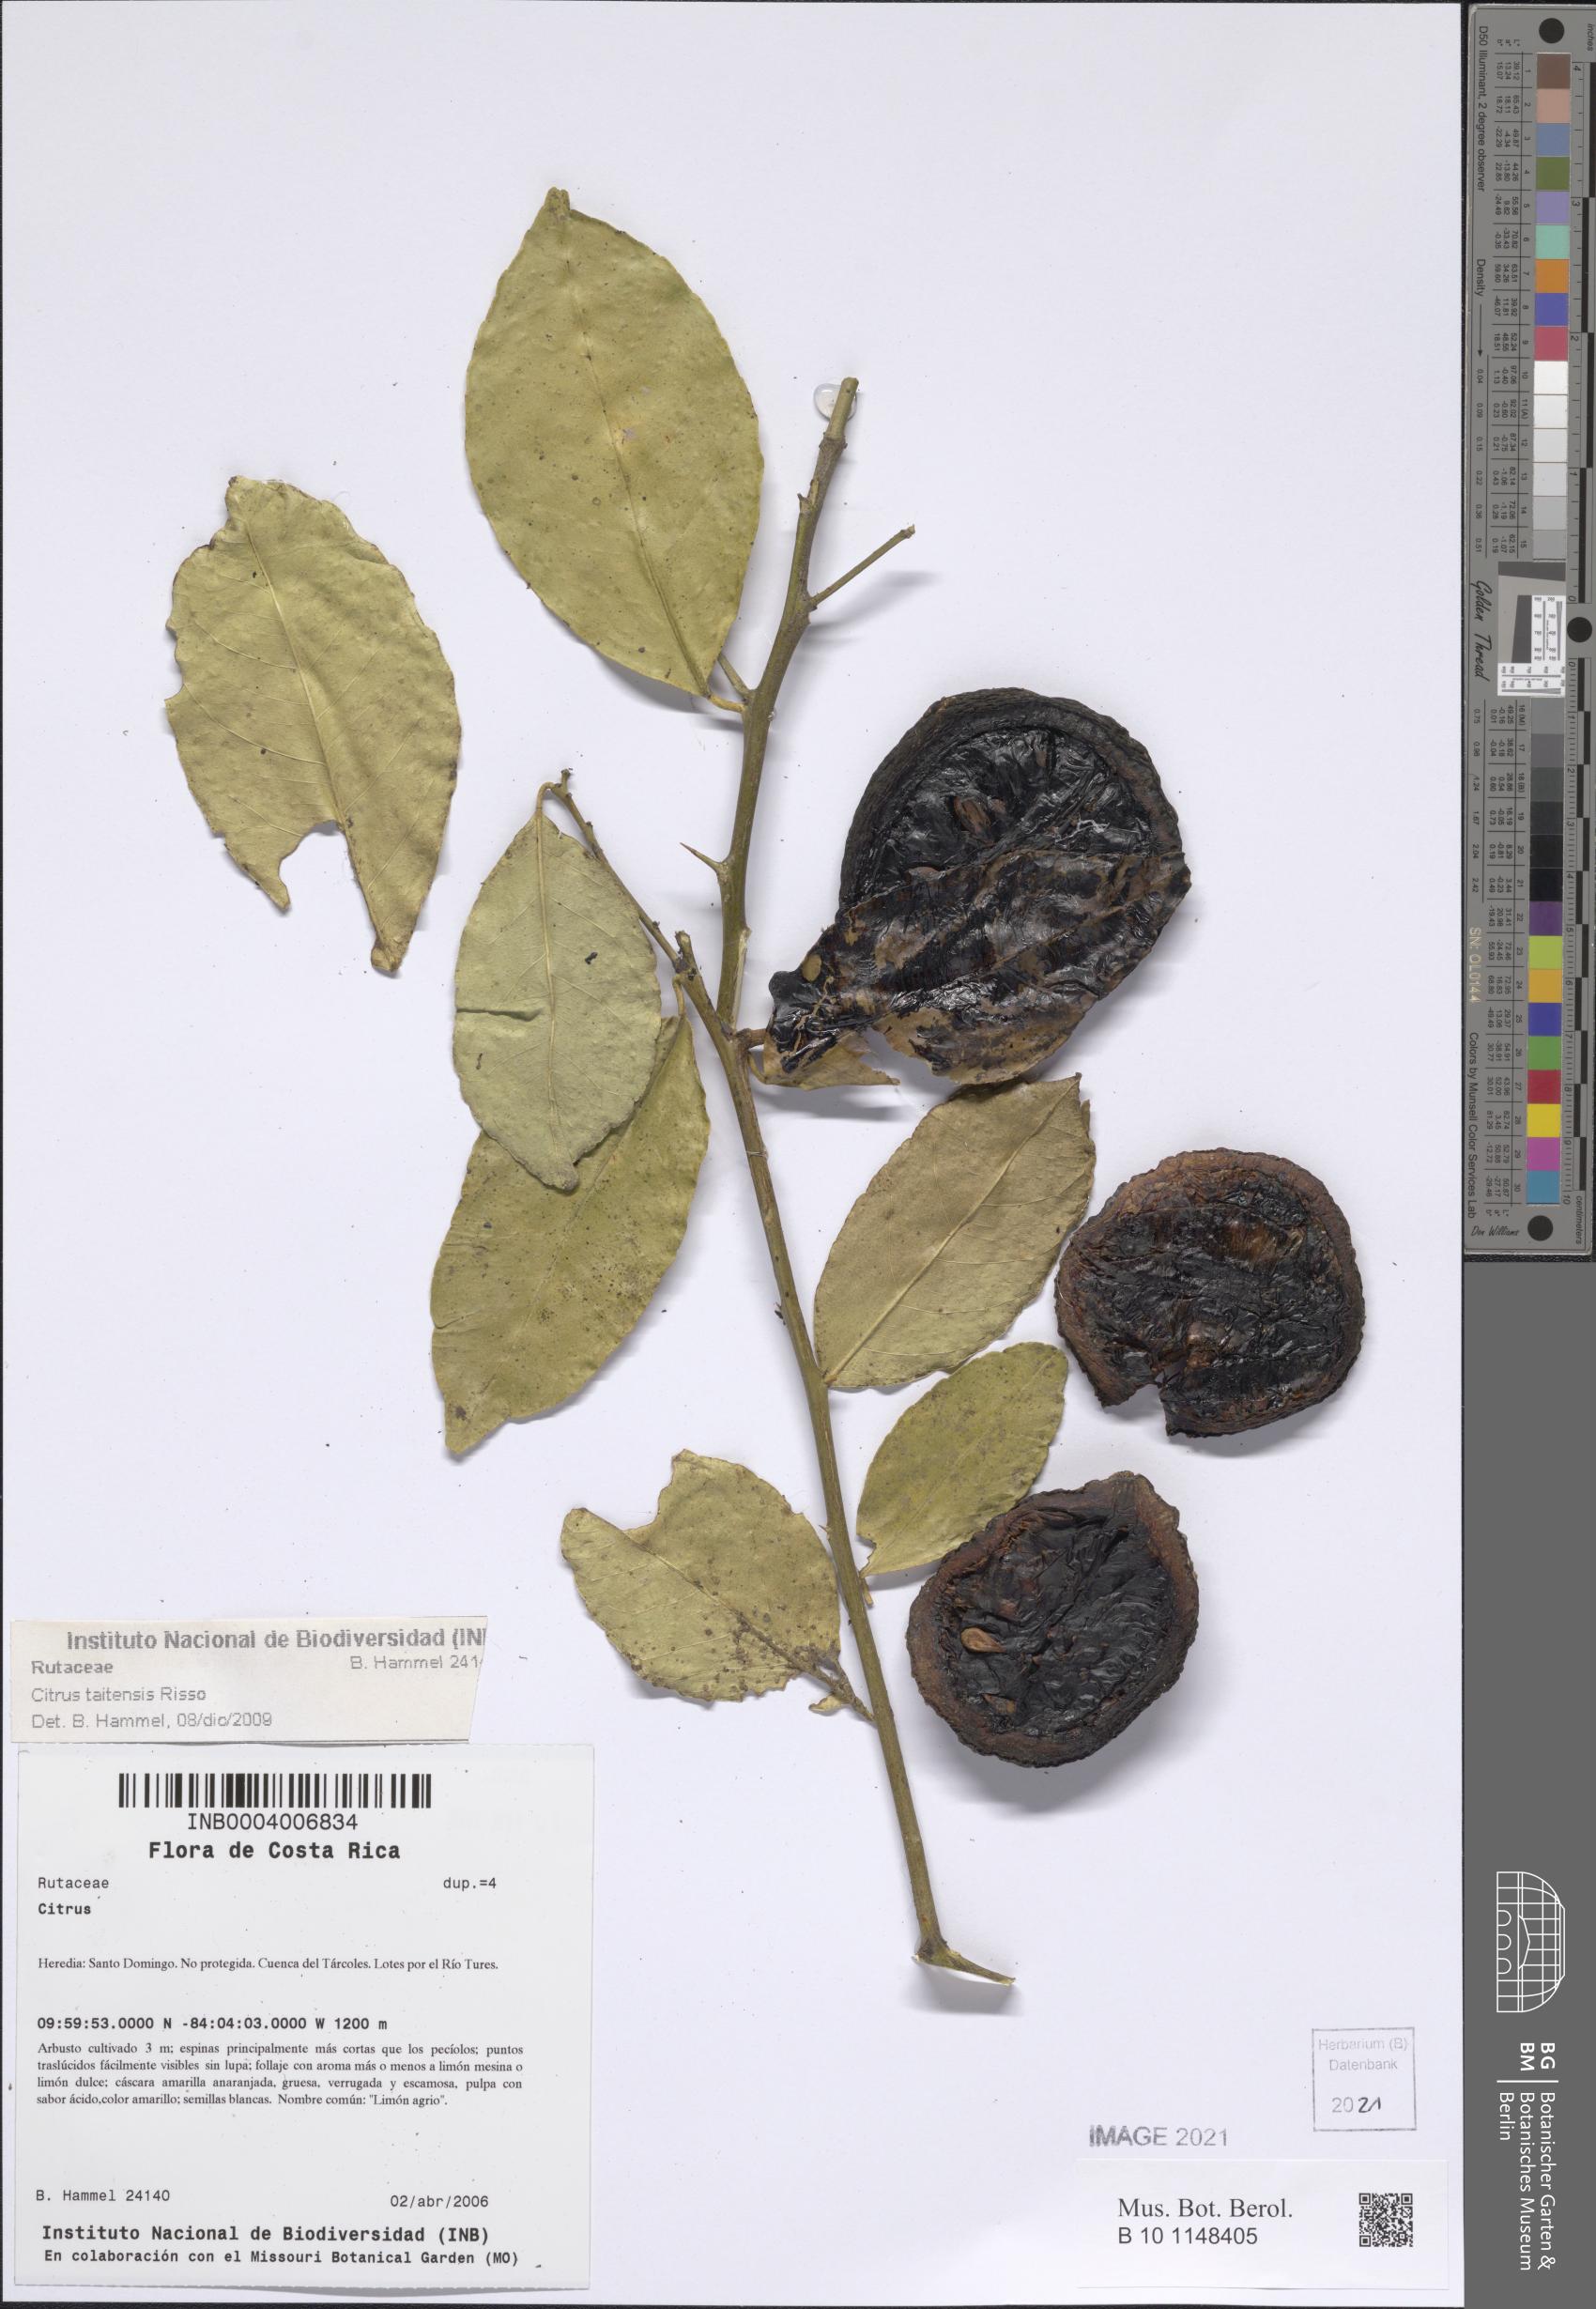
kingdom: Plantae
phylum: Tracheophyta
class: Magnoliopsida
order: Sapindales
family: Rutaceae
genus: Citrus
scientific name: Citrus taitensis
